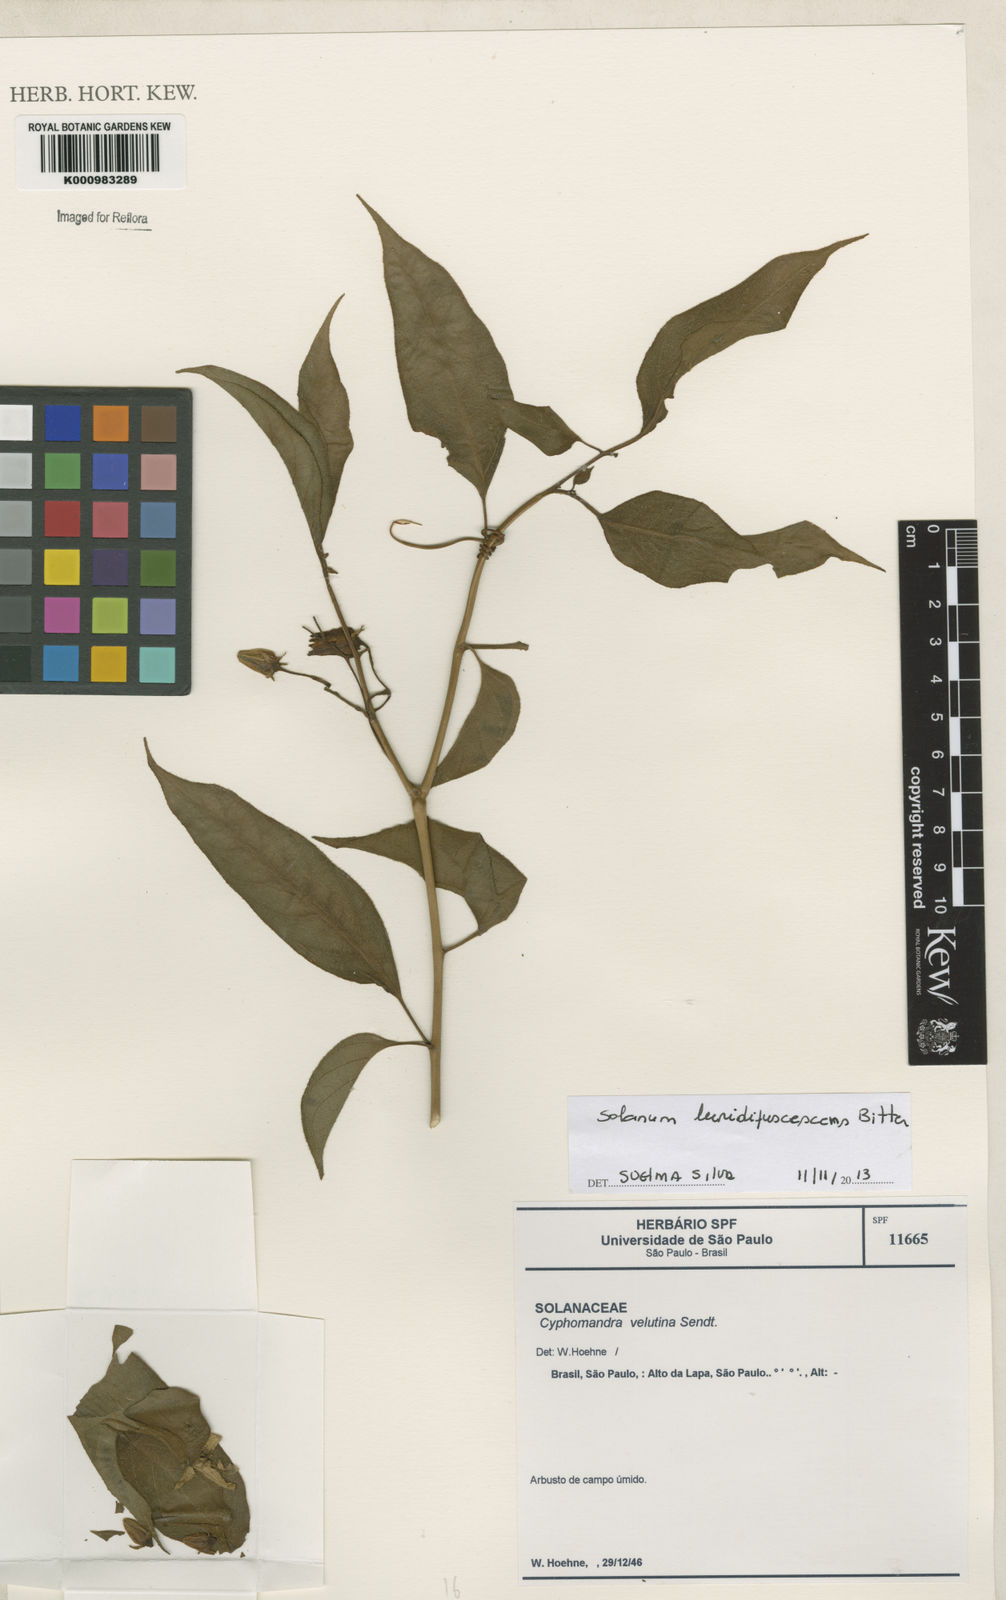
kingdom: Plantae
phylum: Tracheophyta
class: Magnoliopsida
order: Solanales
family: Solanaceae
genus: Solanum
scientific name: Solanum luridifuscescens
